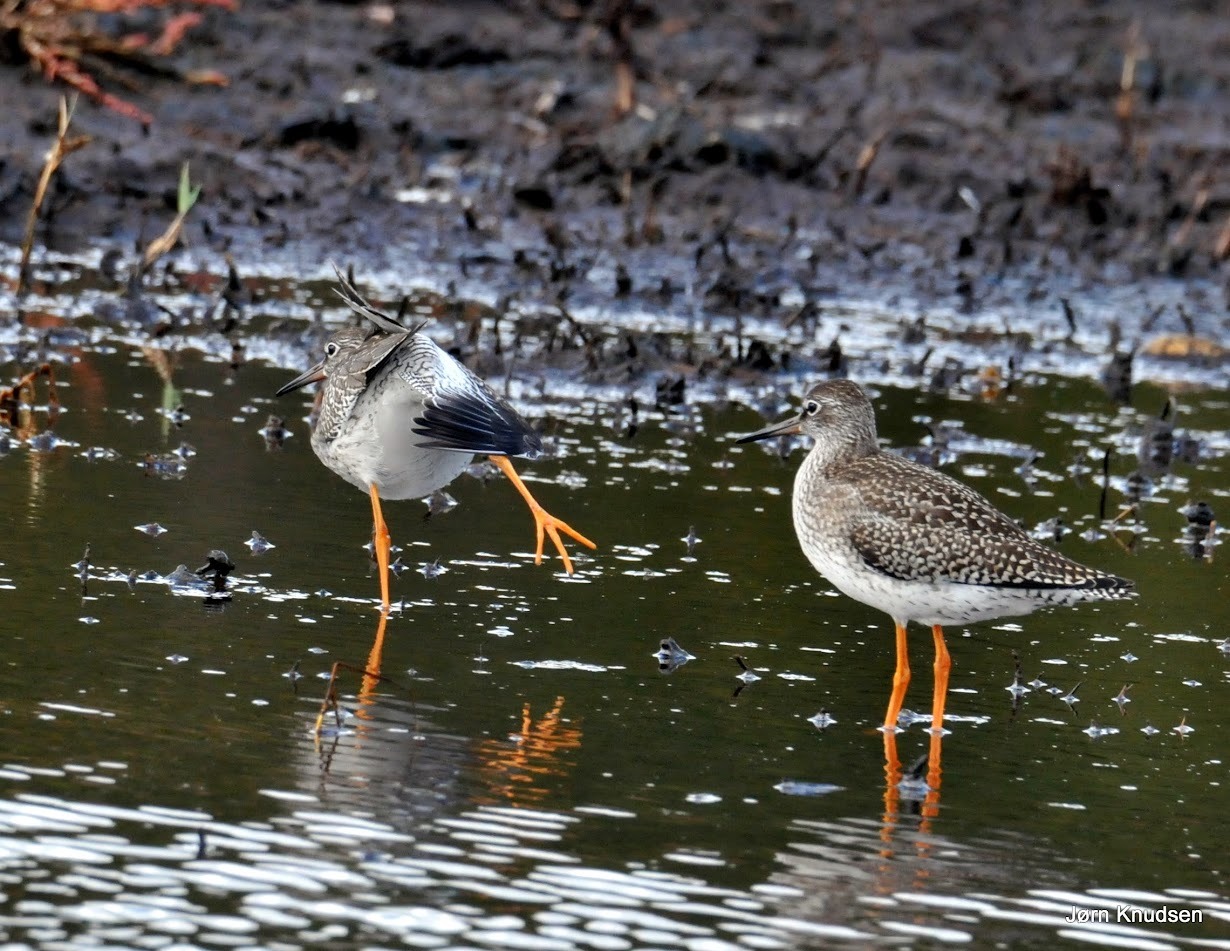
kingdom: Animalia
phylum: Chordata
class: Aves
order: Charadriiformes
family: Scolopacidae
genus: Tringa
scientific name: Tringa totanus
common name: Rødben
